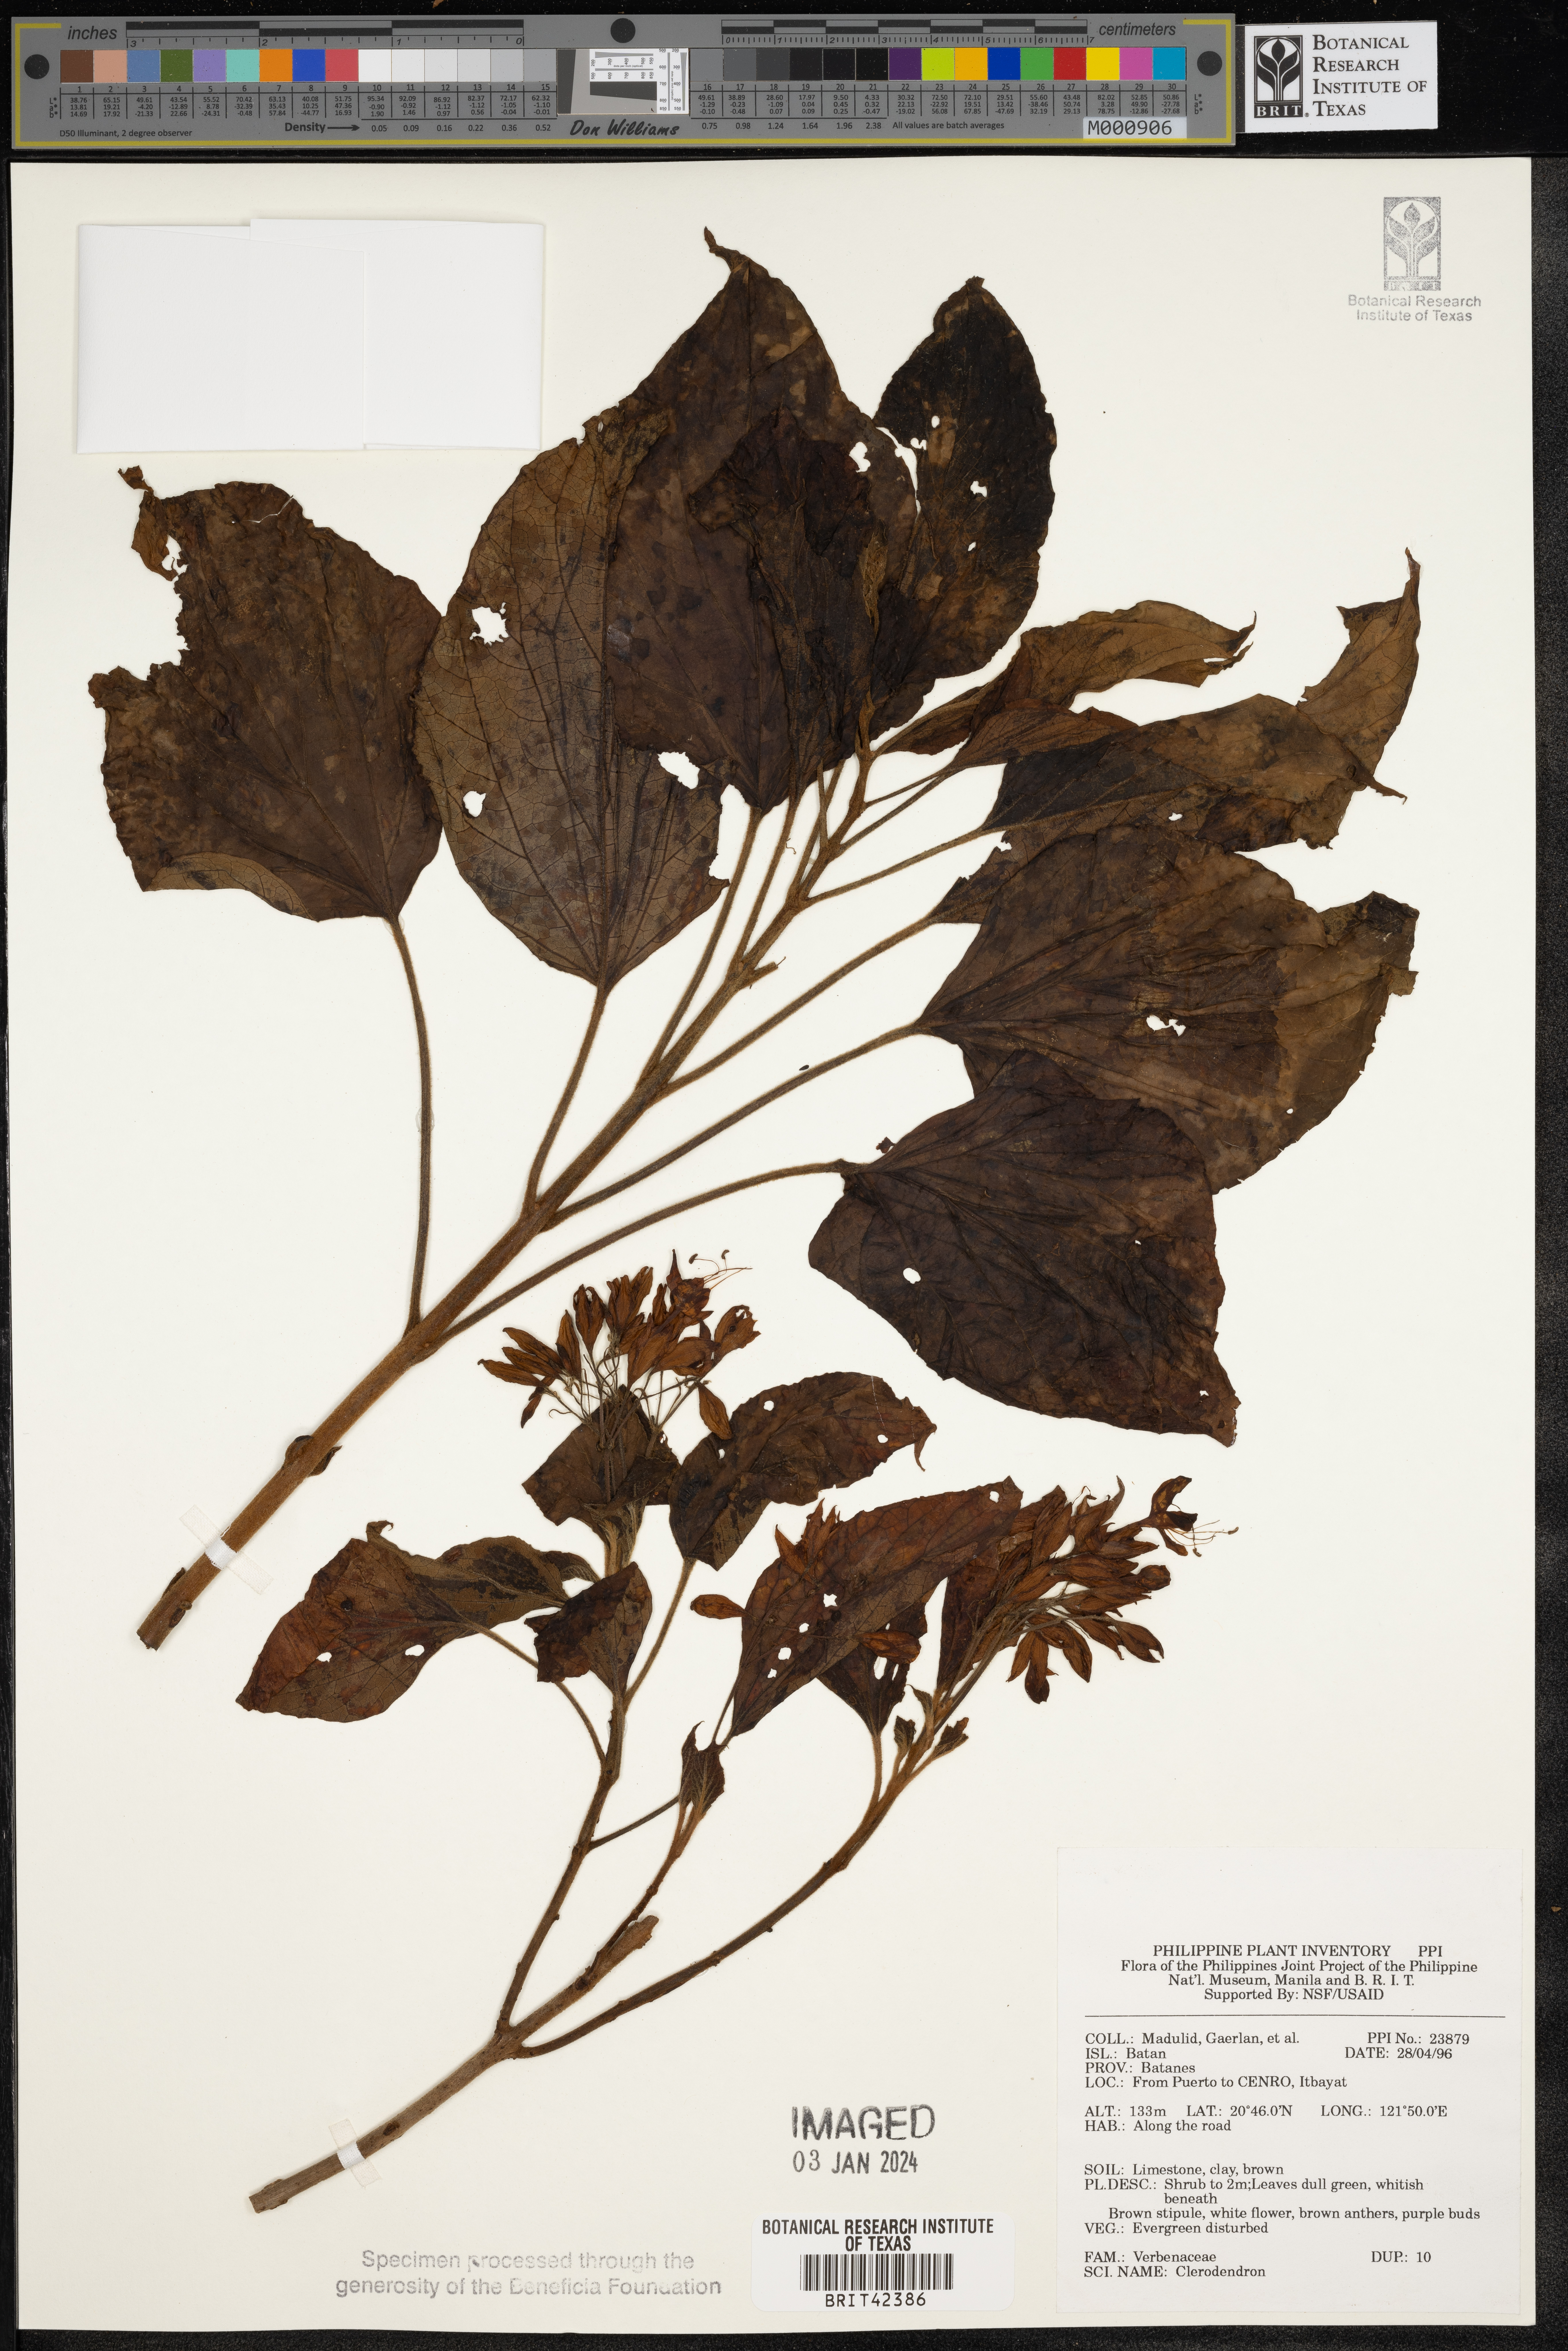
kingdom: Plantae
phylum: Tracheophyta
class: Magnoliopsida
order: Lamiales
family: Lamiaceae
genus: Clerodendrum
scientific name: Clerodendrum
